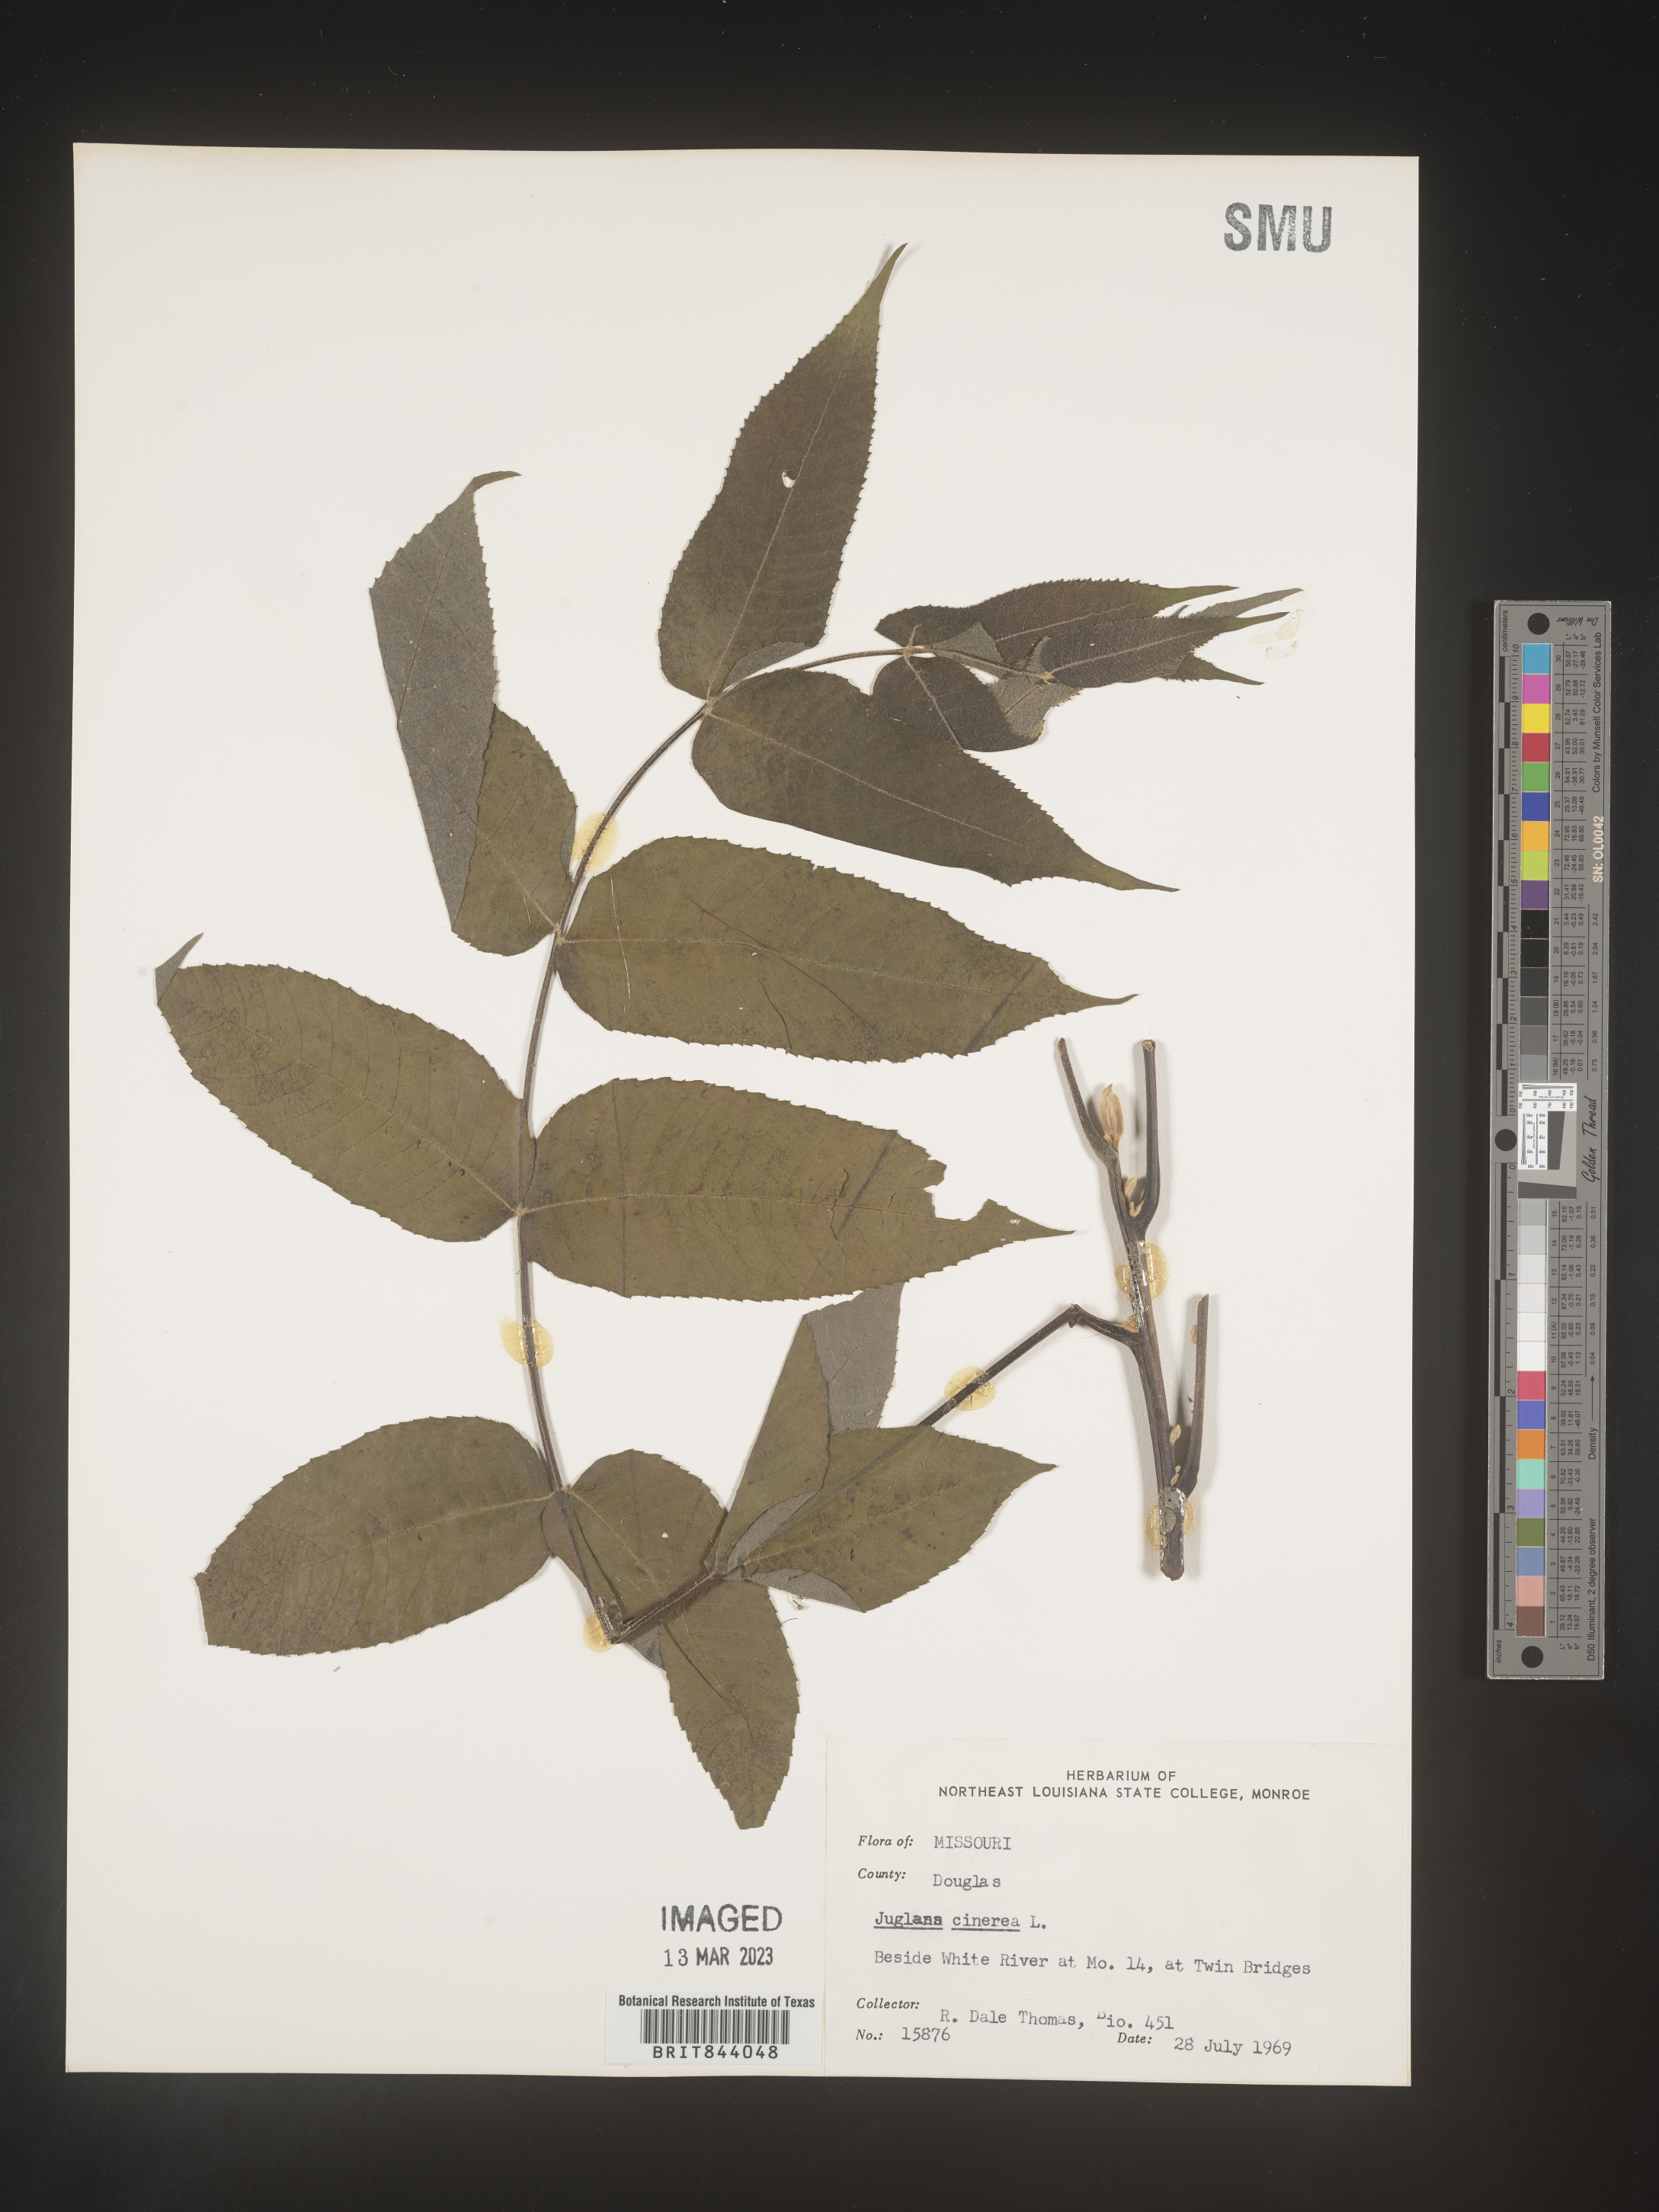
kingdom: Plantae
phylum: Tracheophyta
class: Magnoliopsida
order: Fagales
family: Juglandaceae
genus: Juglans
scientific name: Juglans cinerea
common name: Butternut
